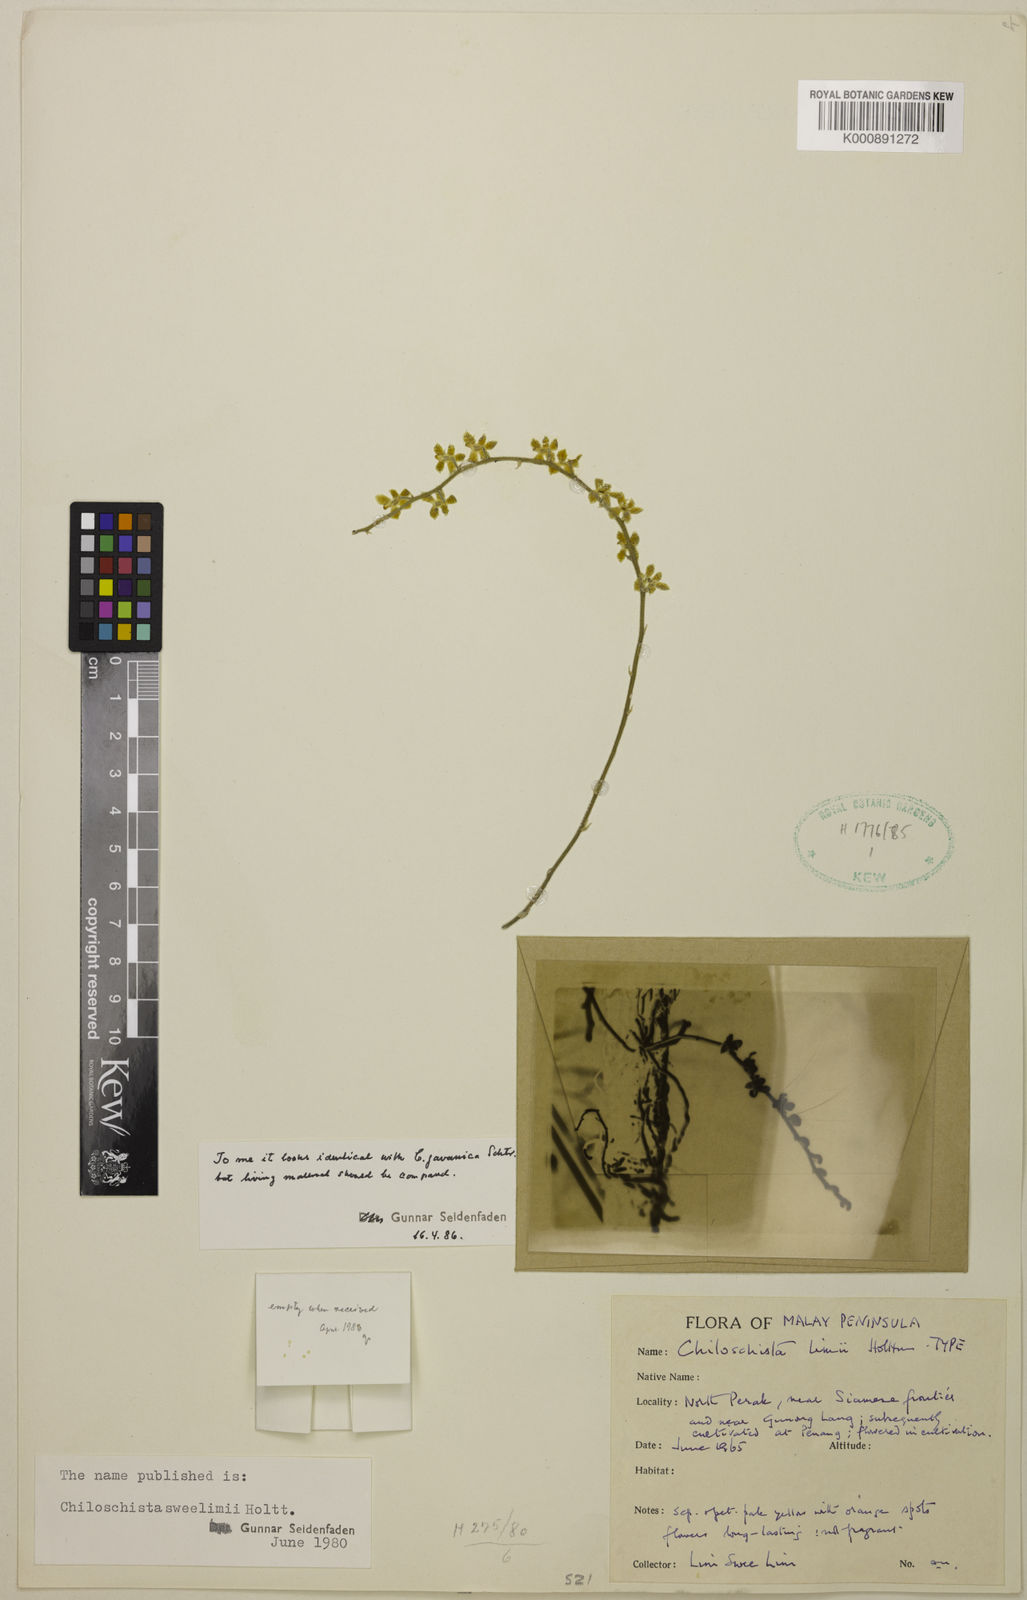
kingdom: Plantae
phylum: Tracheophyta
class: Liliopsida
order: Asparagales
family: Orchidaceae
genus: Chiloschista
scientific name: Chiloschista sweelimii
